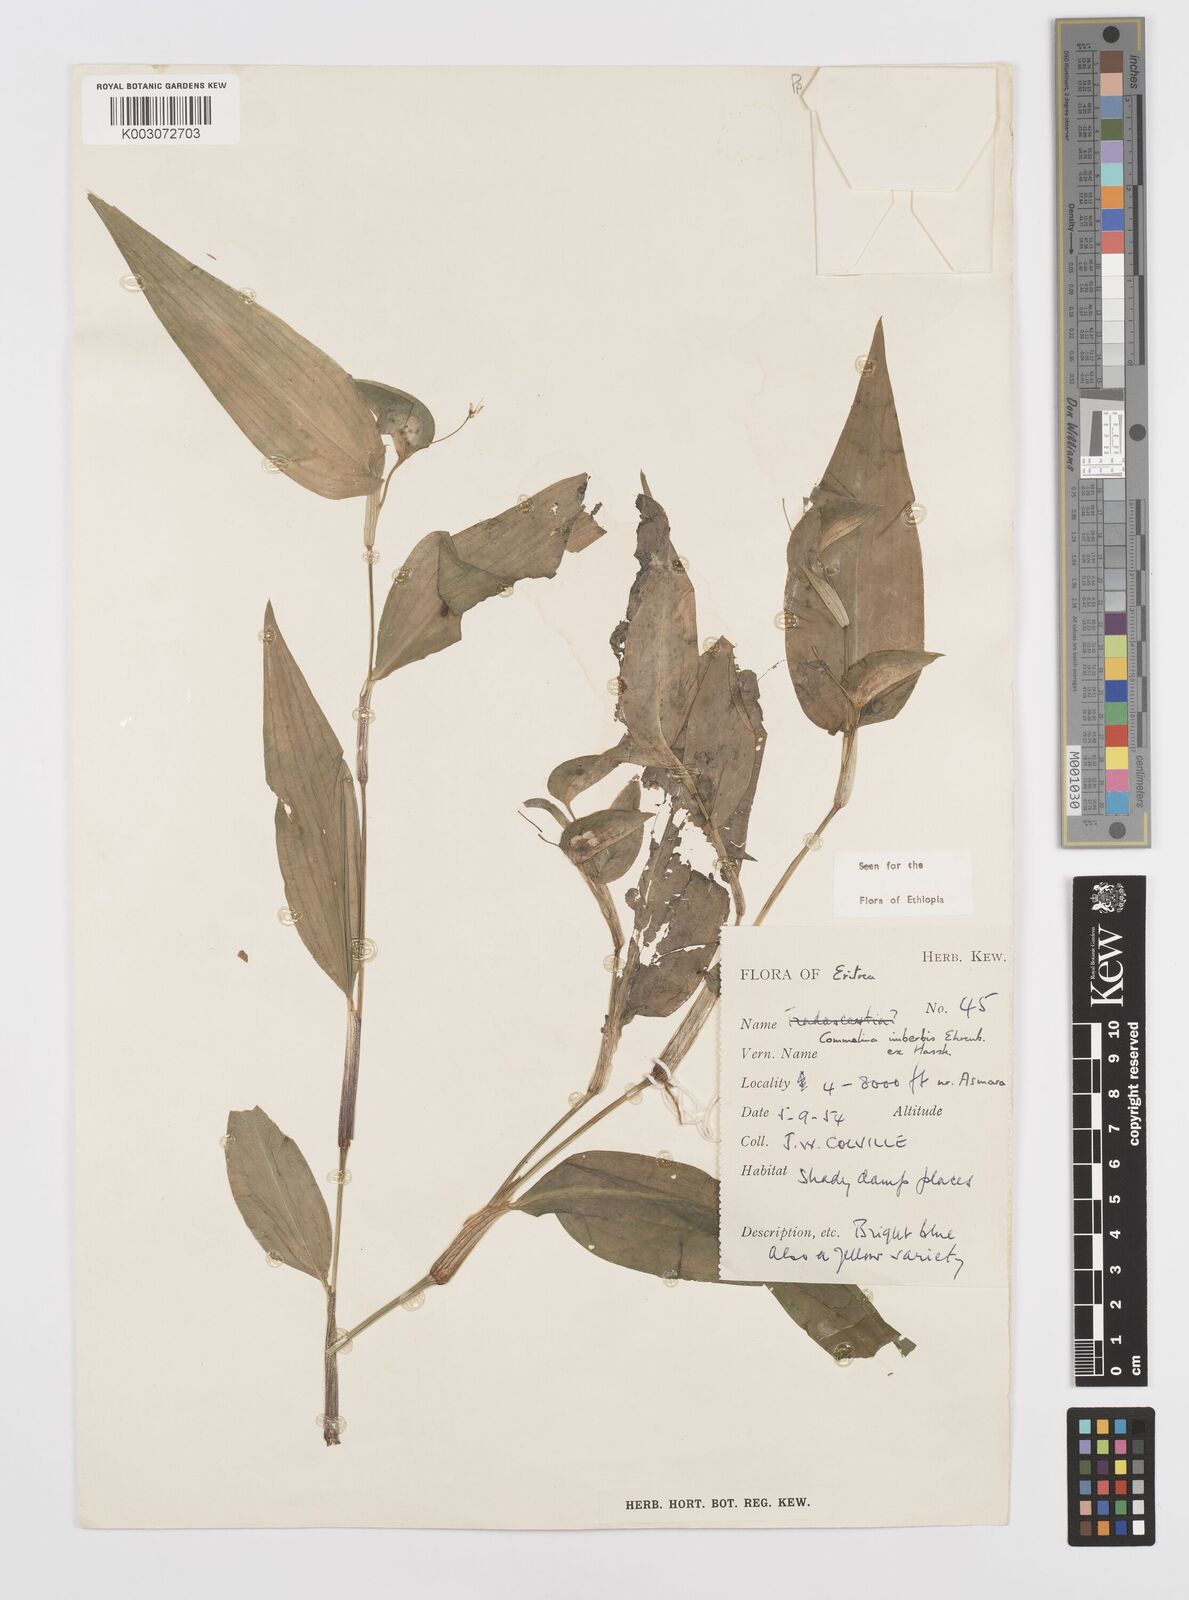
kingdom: Plantae
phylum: Tracheophyta
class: Liliopsida
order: Commelinales
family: Commelinaceae
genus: Commelina
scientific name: Commelina imberbis
